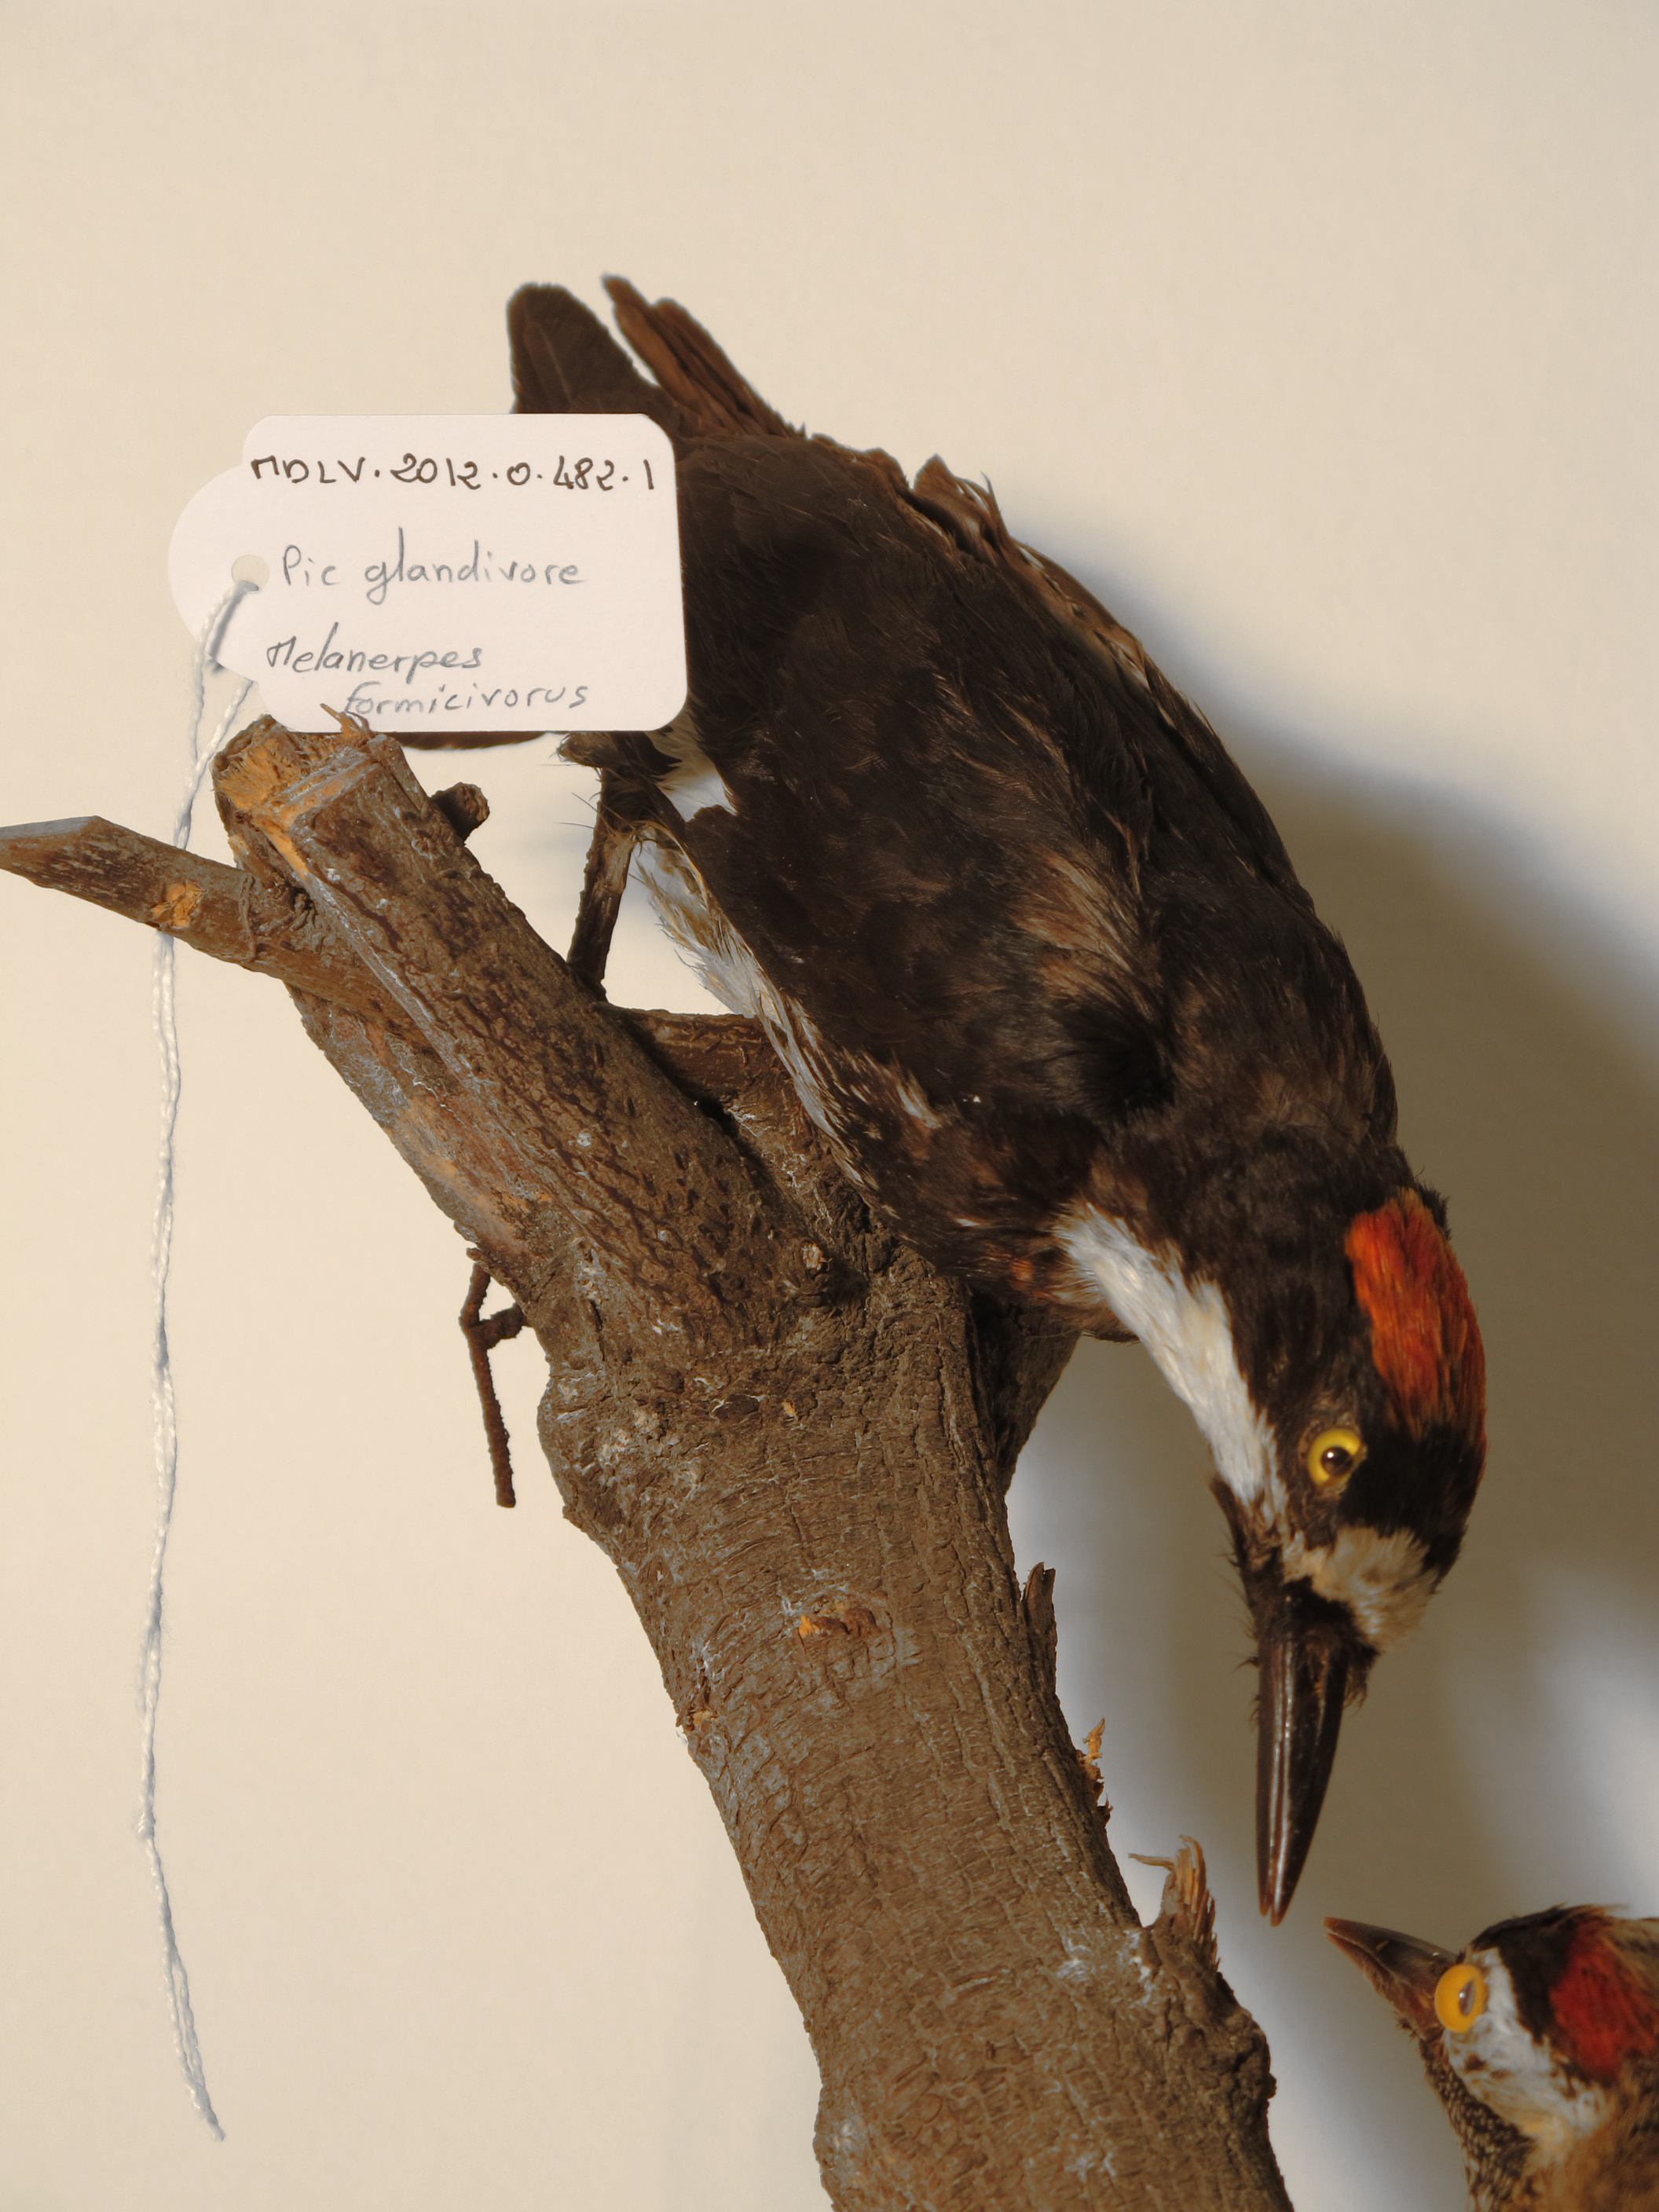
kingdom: Animalia
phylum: Chordata
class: Aves
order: Piciformes
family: Picidae
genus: Melanerpes
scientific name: Melanerpes formicivorus
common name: Acorn Woodpecker
